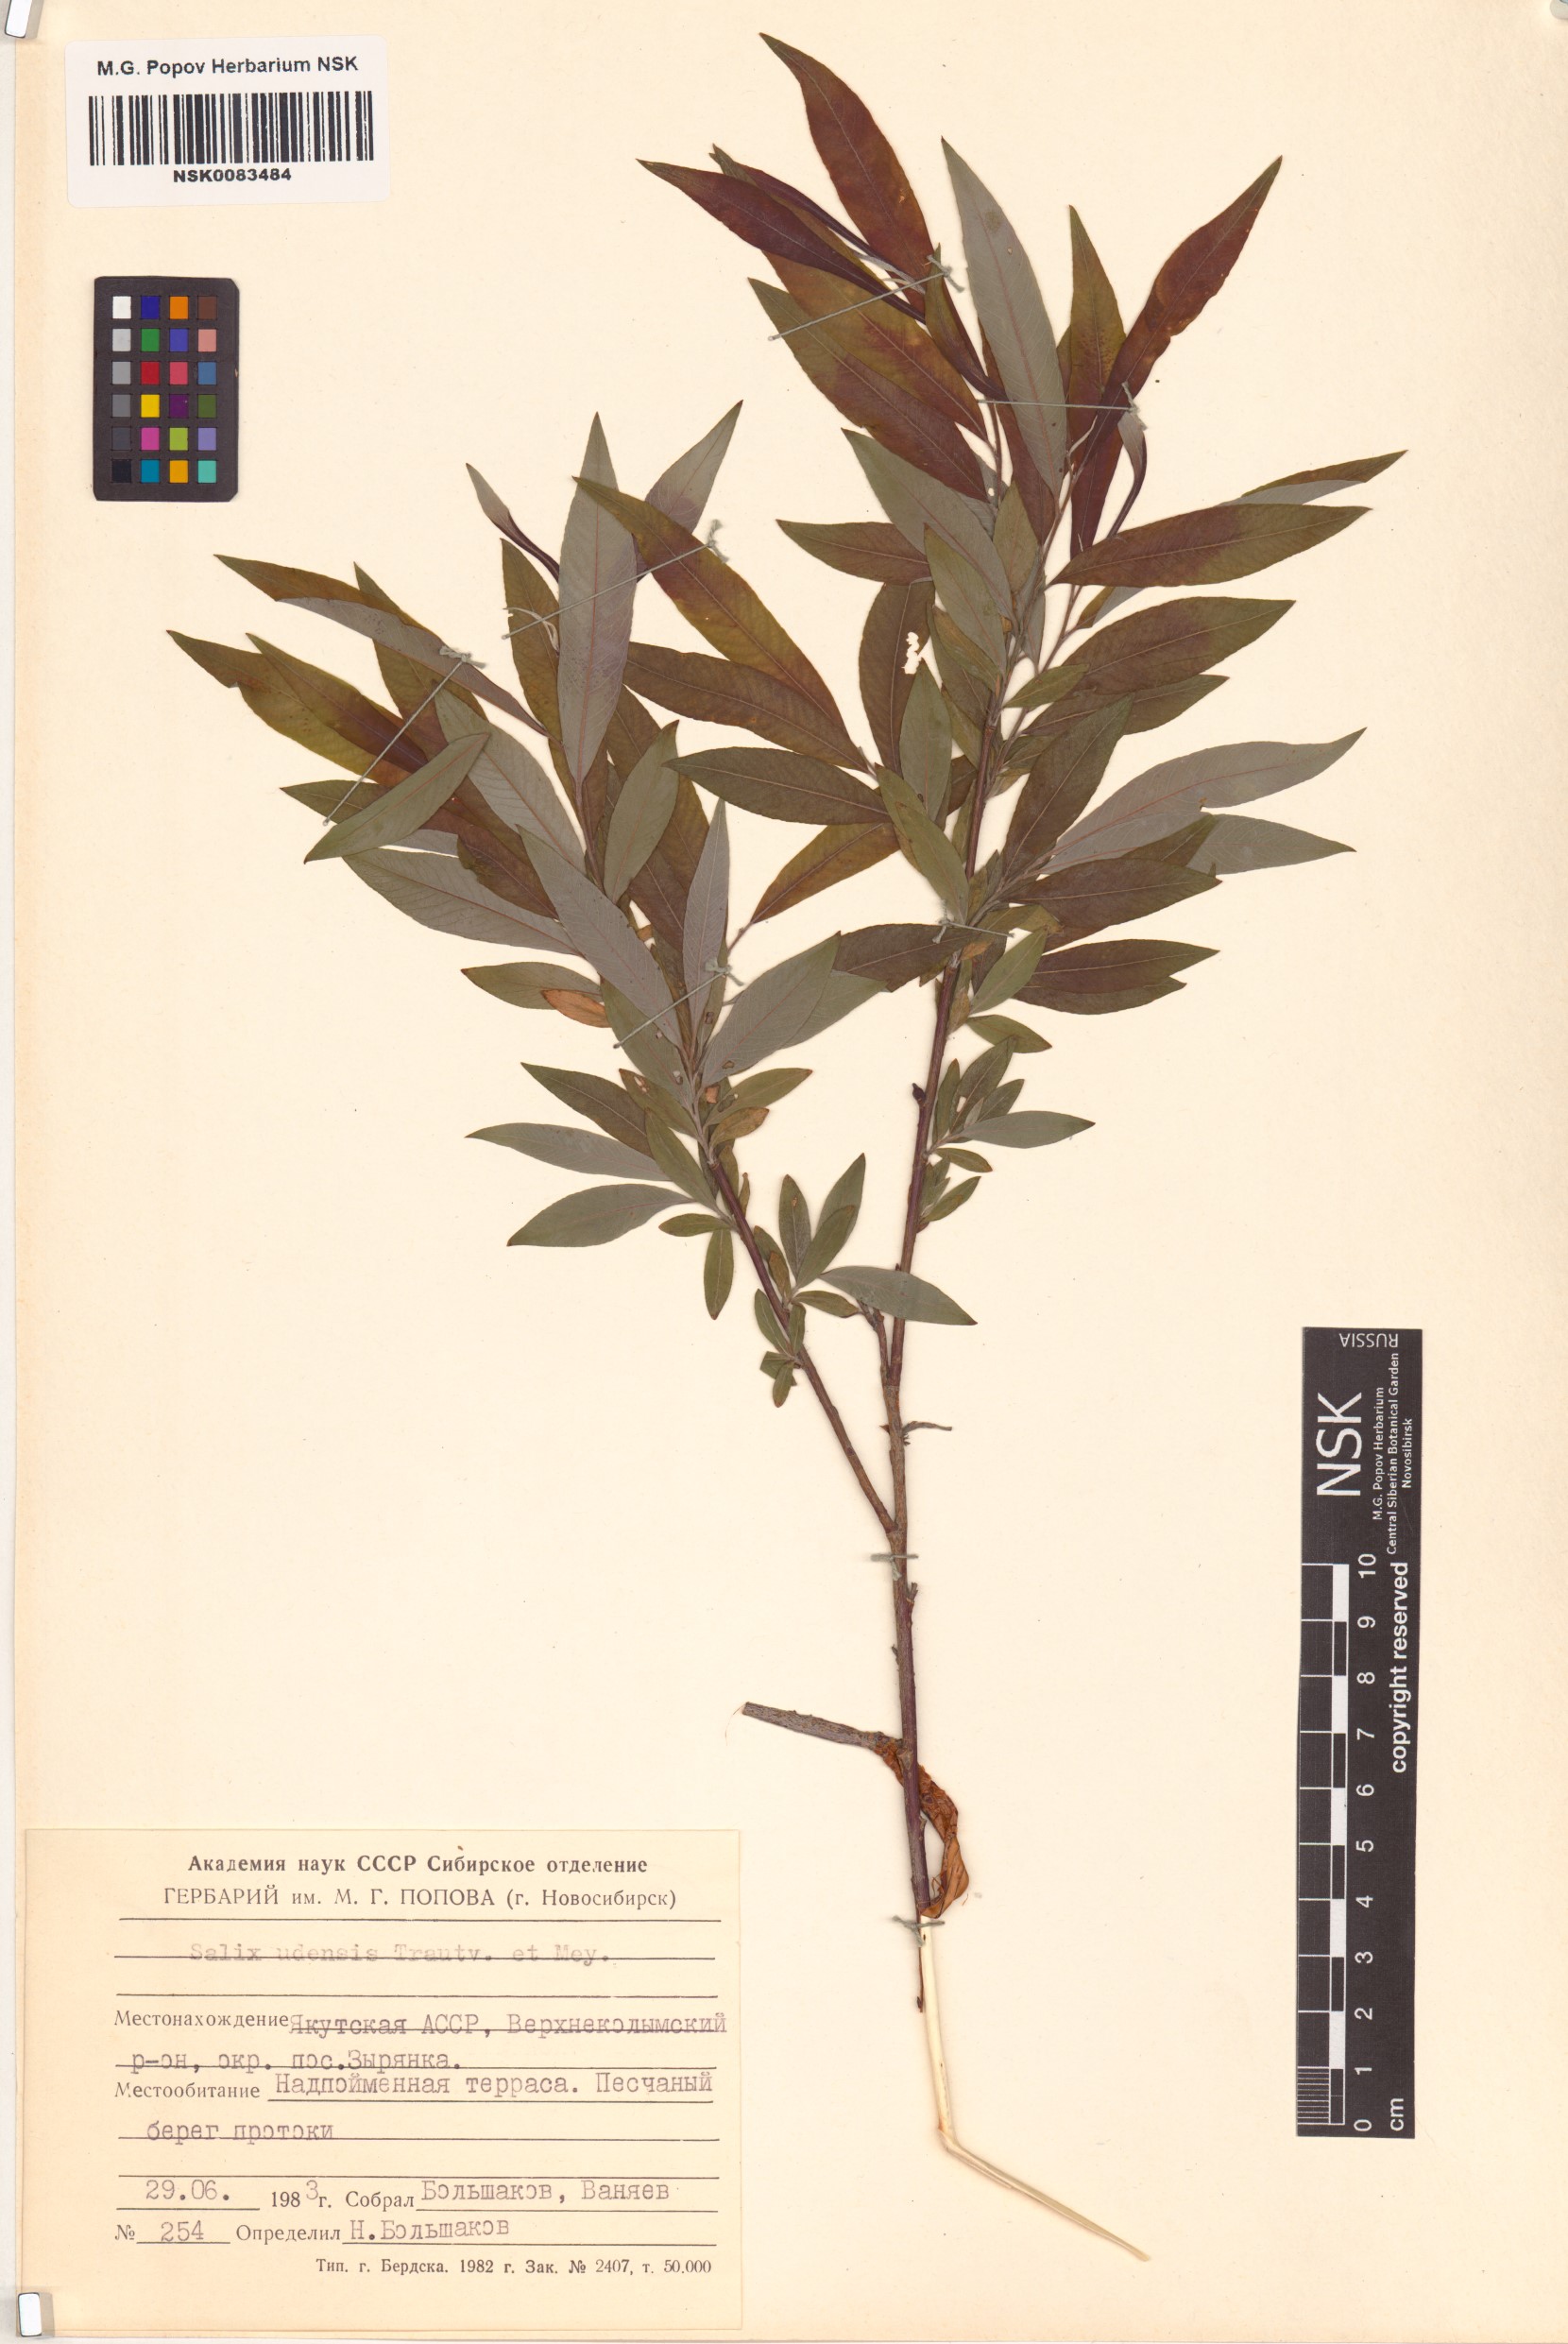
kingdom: Plantae
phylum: Tracheophyta
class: Magnoliopsida
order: Malpighiales
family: Salicaceae
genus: Salix
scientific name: Salix udensis
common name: Sachalin willow
